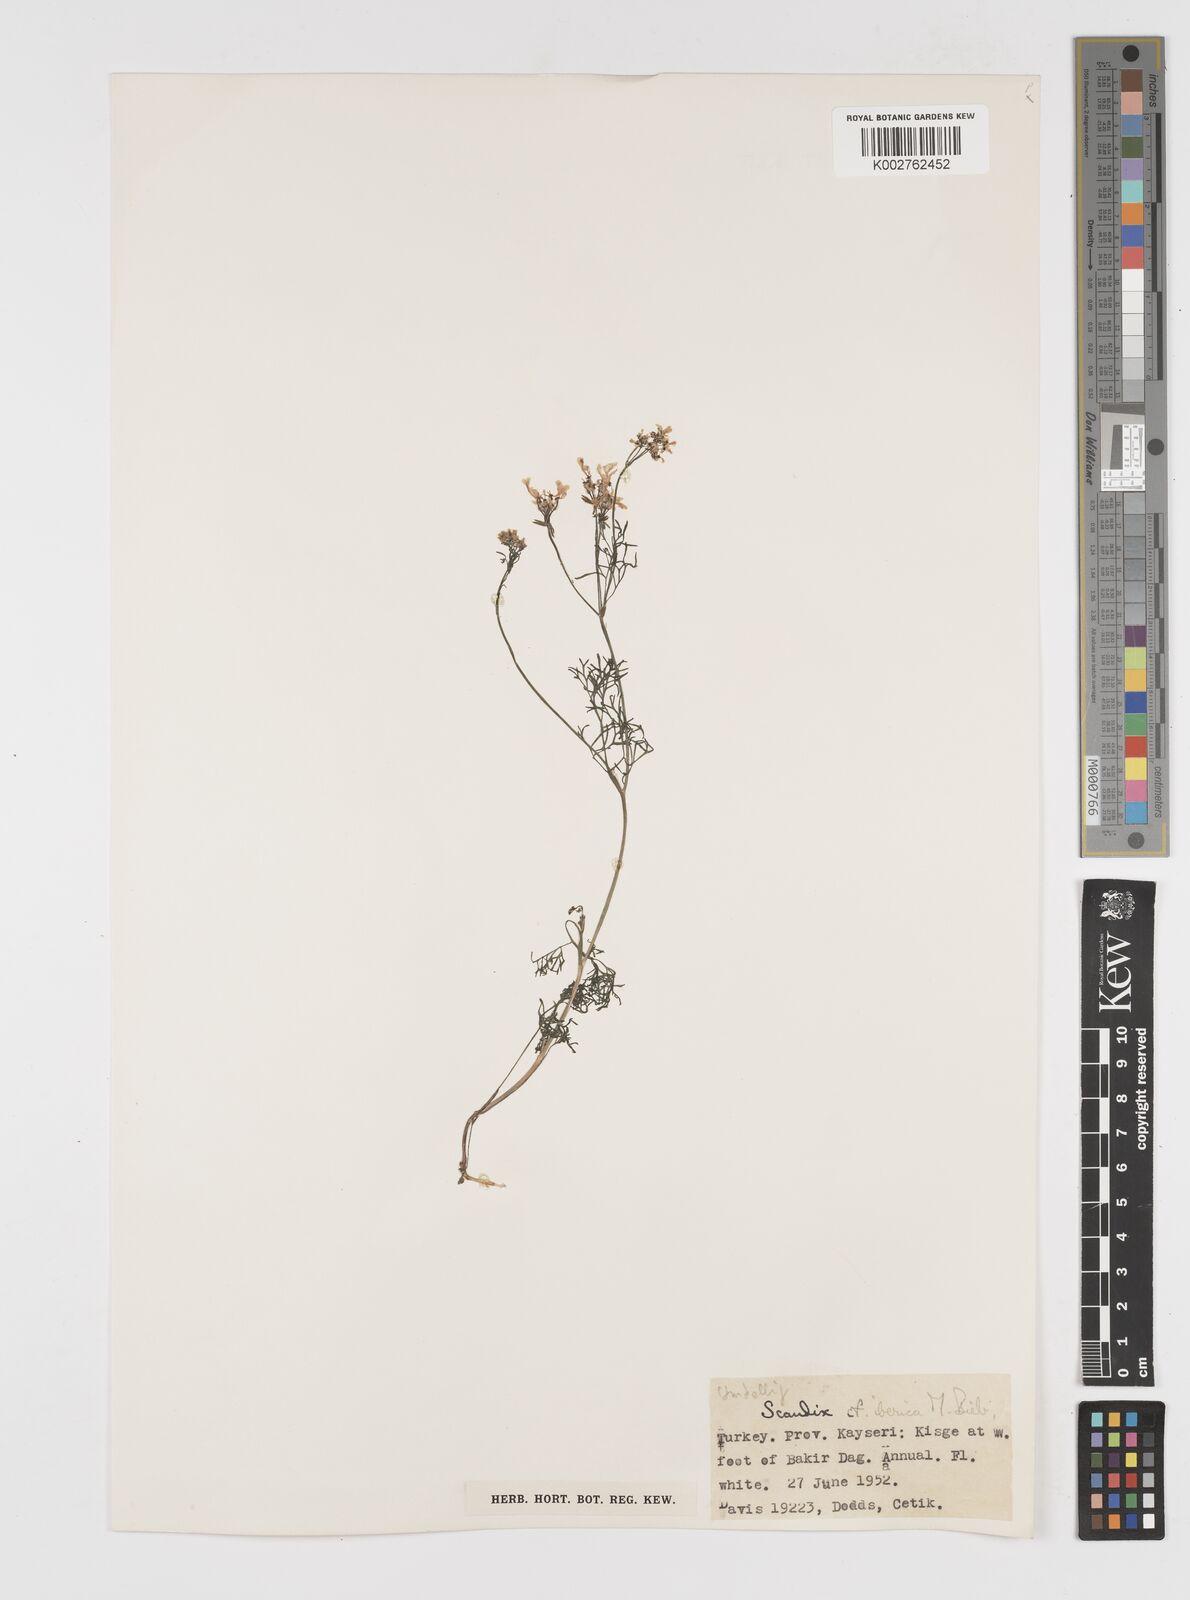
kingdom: Plantae
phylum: Tracheophyta
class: Magnoliopsida
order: Apiales
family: Apiaceae
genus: Scandix
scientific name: Scandix iberica
